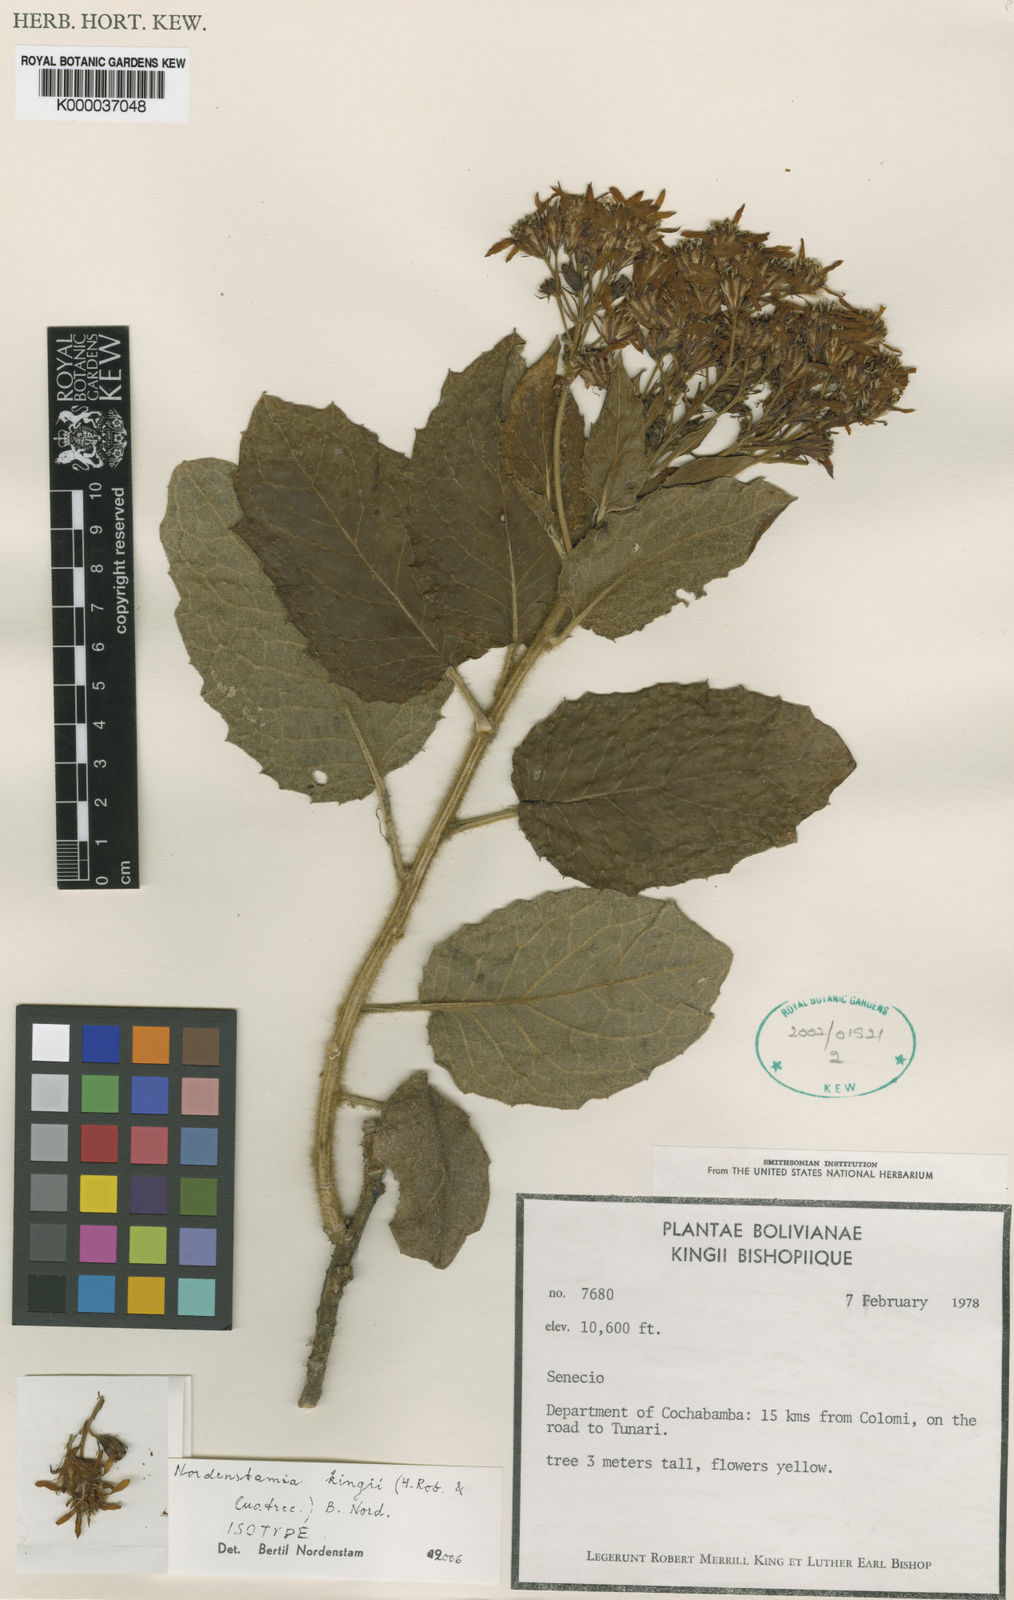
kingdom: Plantae
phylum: Tracheophyta
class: Magnoliopsida
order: Asterales
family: Asteraceae
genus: Nordenstamia
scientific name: Nordenstamia kingii
